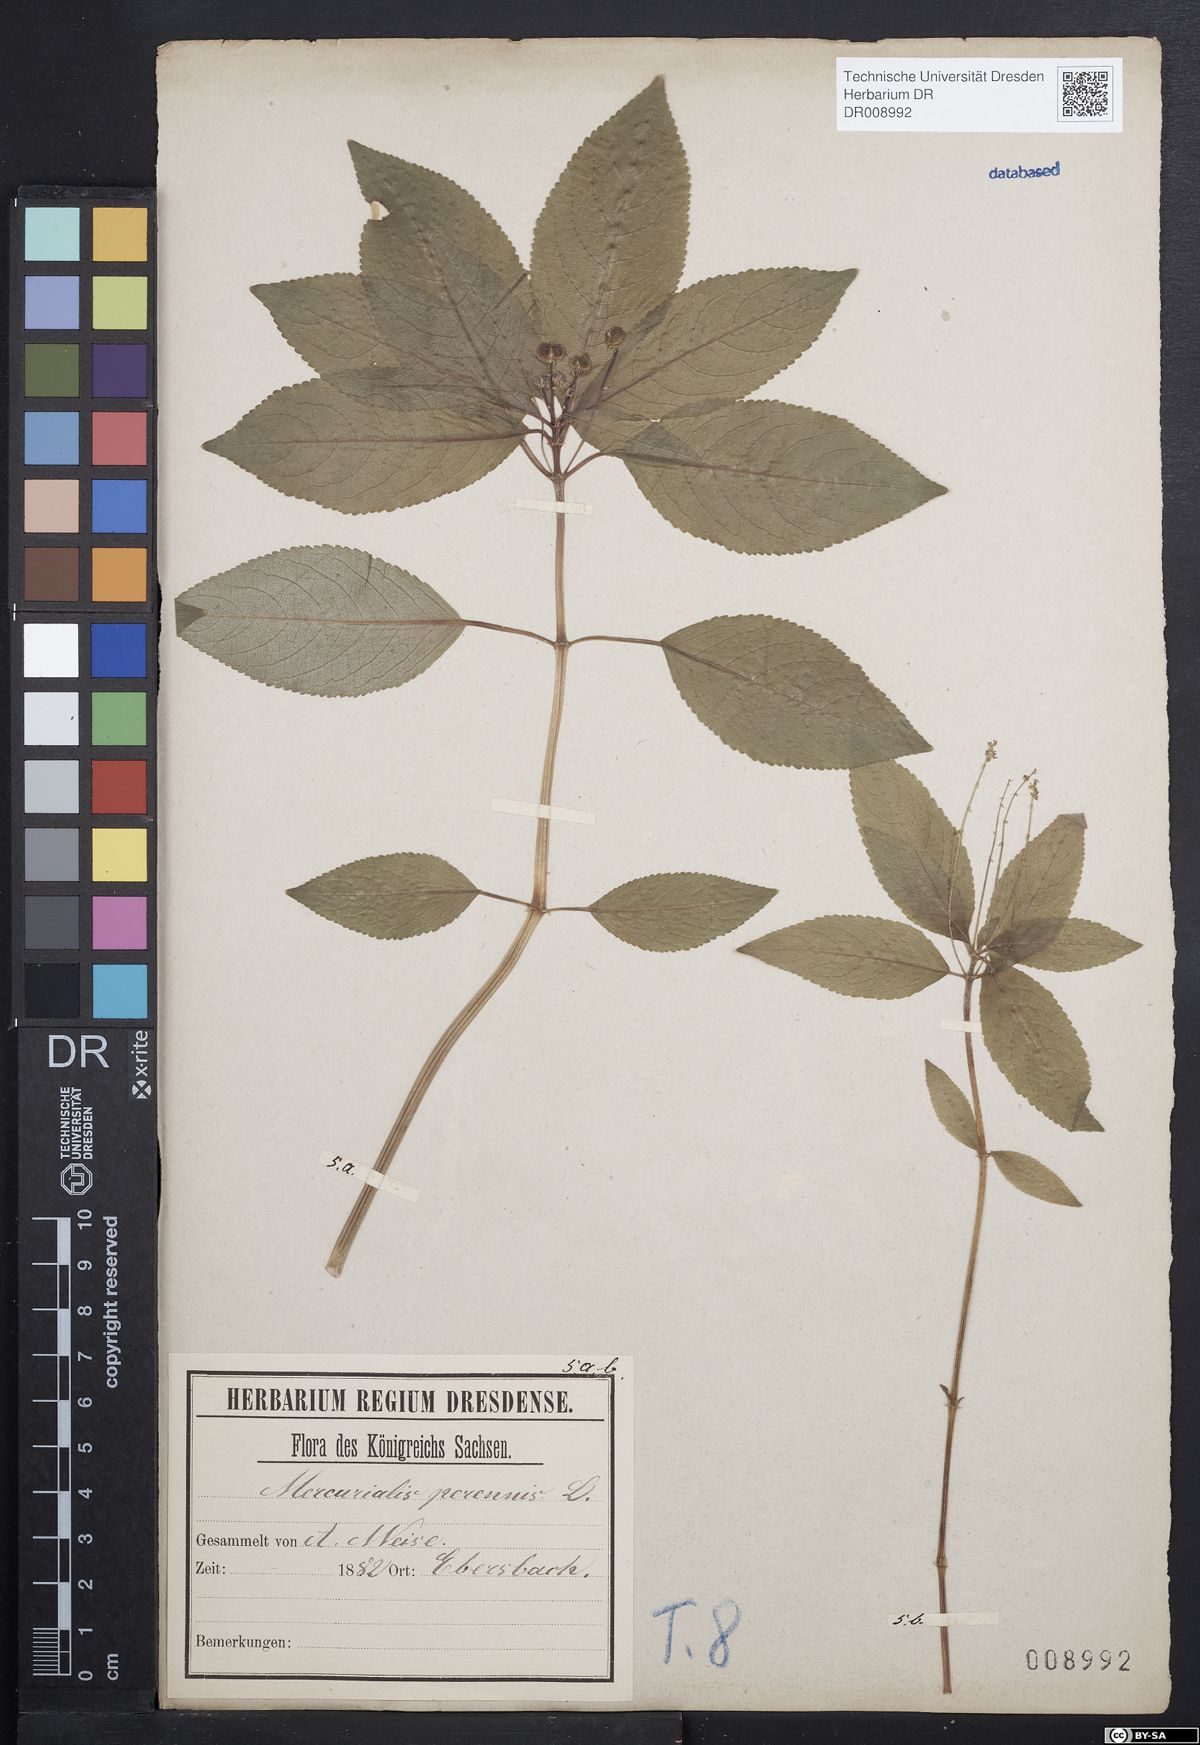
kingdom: Plantae
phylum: Tracheophyta
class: Magnoliopsida
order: Malpighiales
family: Euphorbiaceae
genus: Mercurialis
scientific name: Mercurialis perennis
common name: Dog mercury
